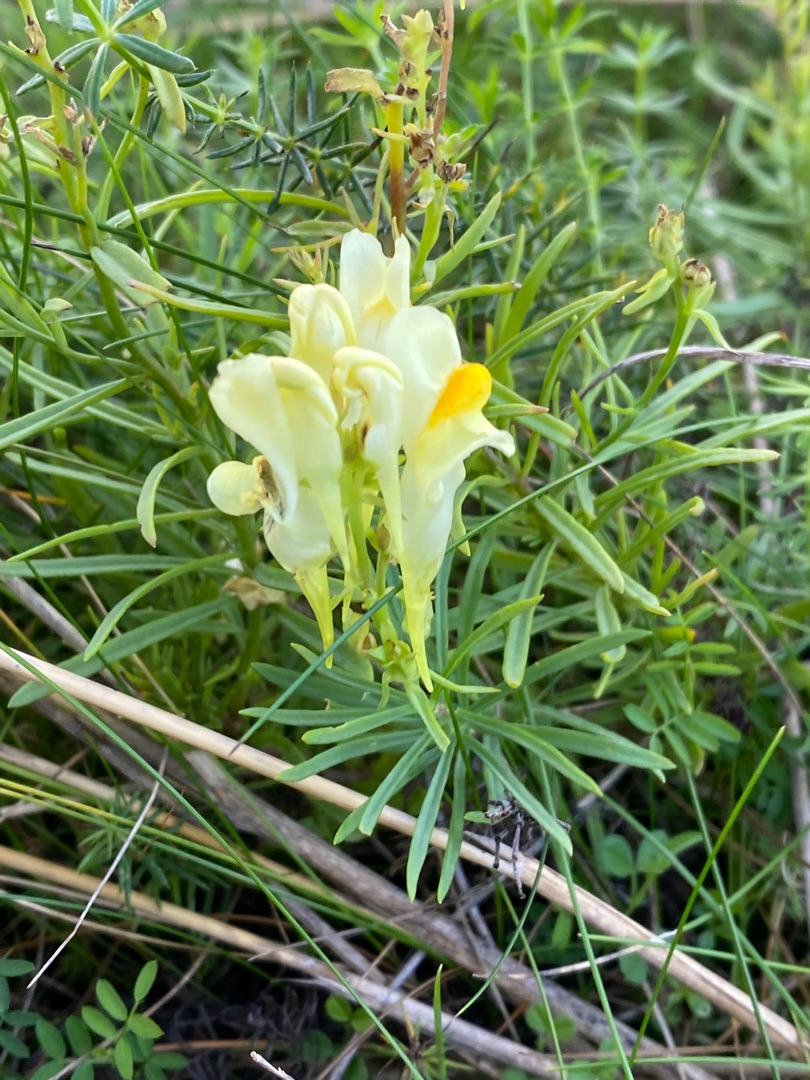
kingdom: Plantae
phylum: Tracheophyta
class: Magnoliopsida
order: Lamiales
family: Plantaginaceae
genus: Linaria
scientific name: Linaria vulgaris
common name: Almindelig torskemund
